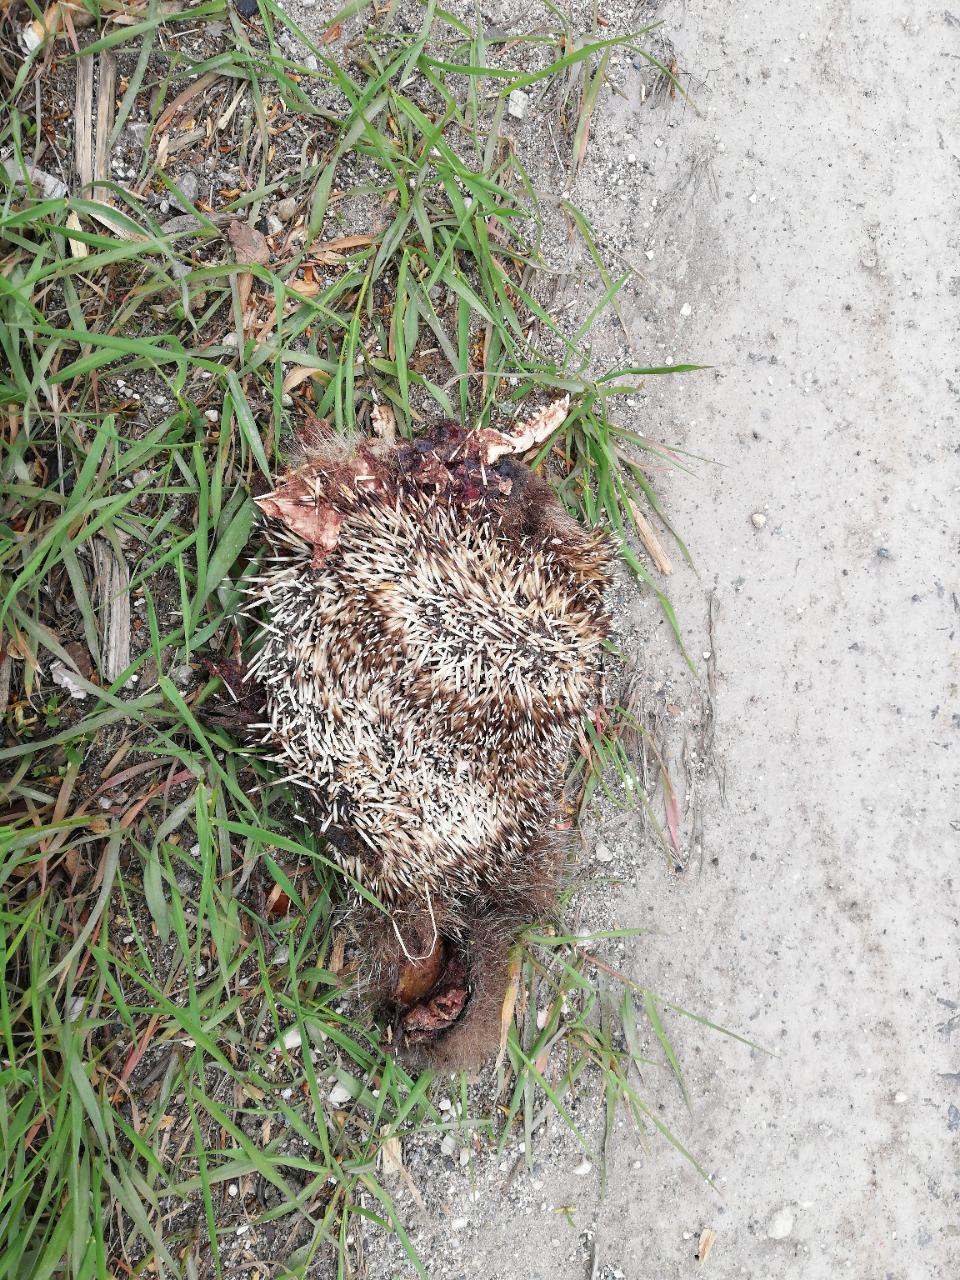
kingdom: Animalia
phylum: Chordata
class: Mammalia
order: Erinaceomorpha
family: Erinaceidae
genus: Erinaceus
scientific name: Erinaceus
